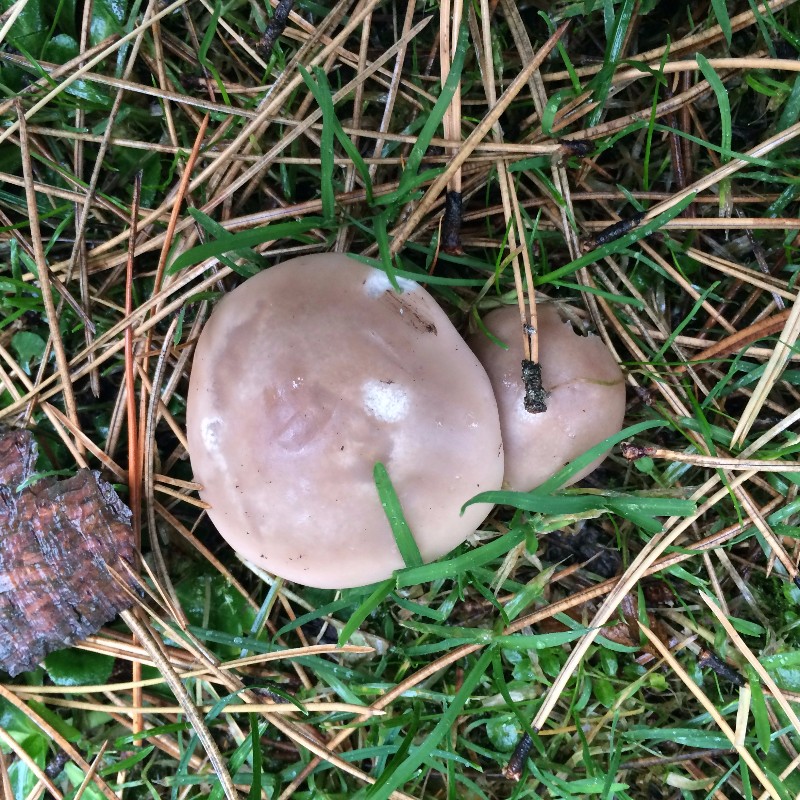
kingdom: Fungi
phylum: Basidiomycota
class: Agaricomycetes
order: Agaricales
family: Tricholomataceae
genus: Lepista
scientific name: Lepista personata
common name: bleg hekseringshat
